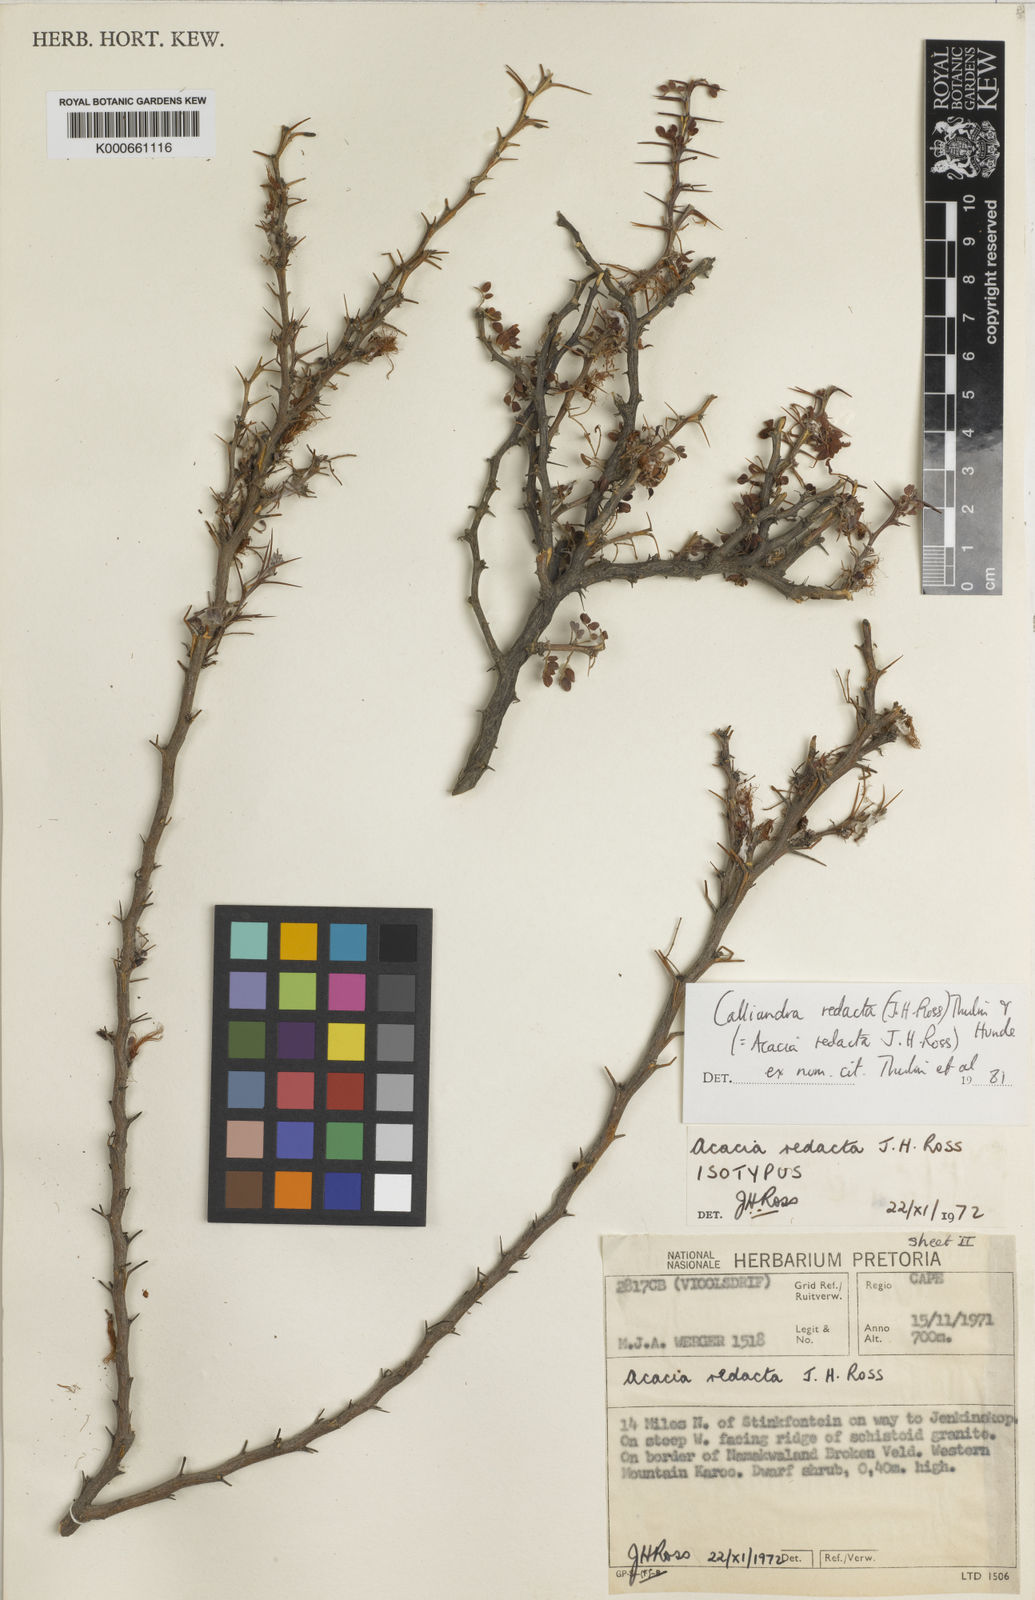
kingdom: Plantae
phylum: Tracheophyta
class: Magnoliopsida
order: Fabales
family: Fabaceae
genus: Afrocalliandra
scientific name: Afrocalliandra redacta
